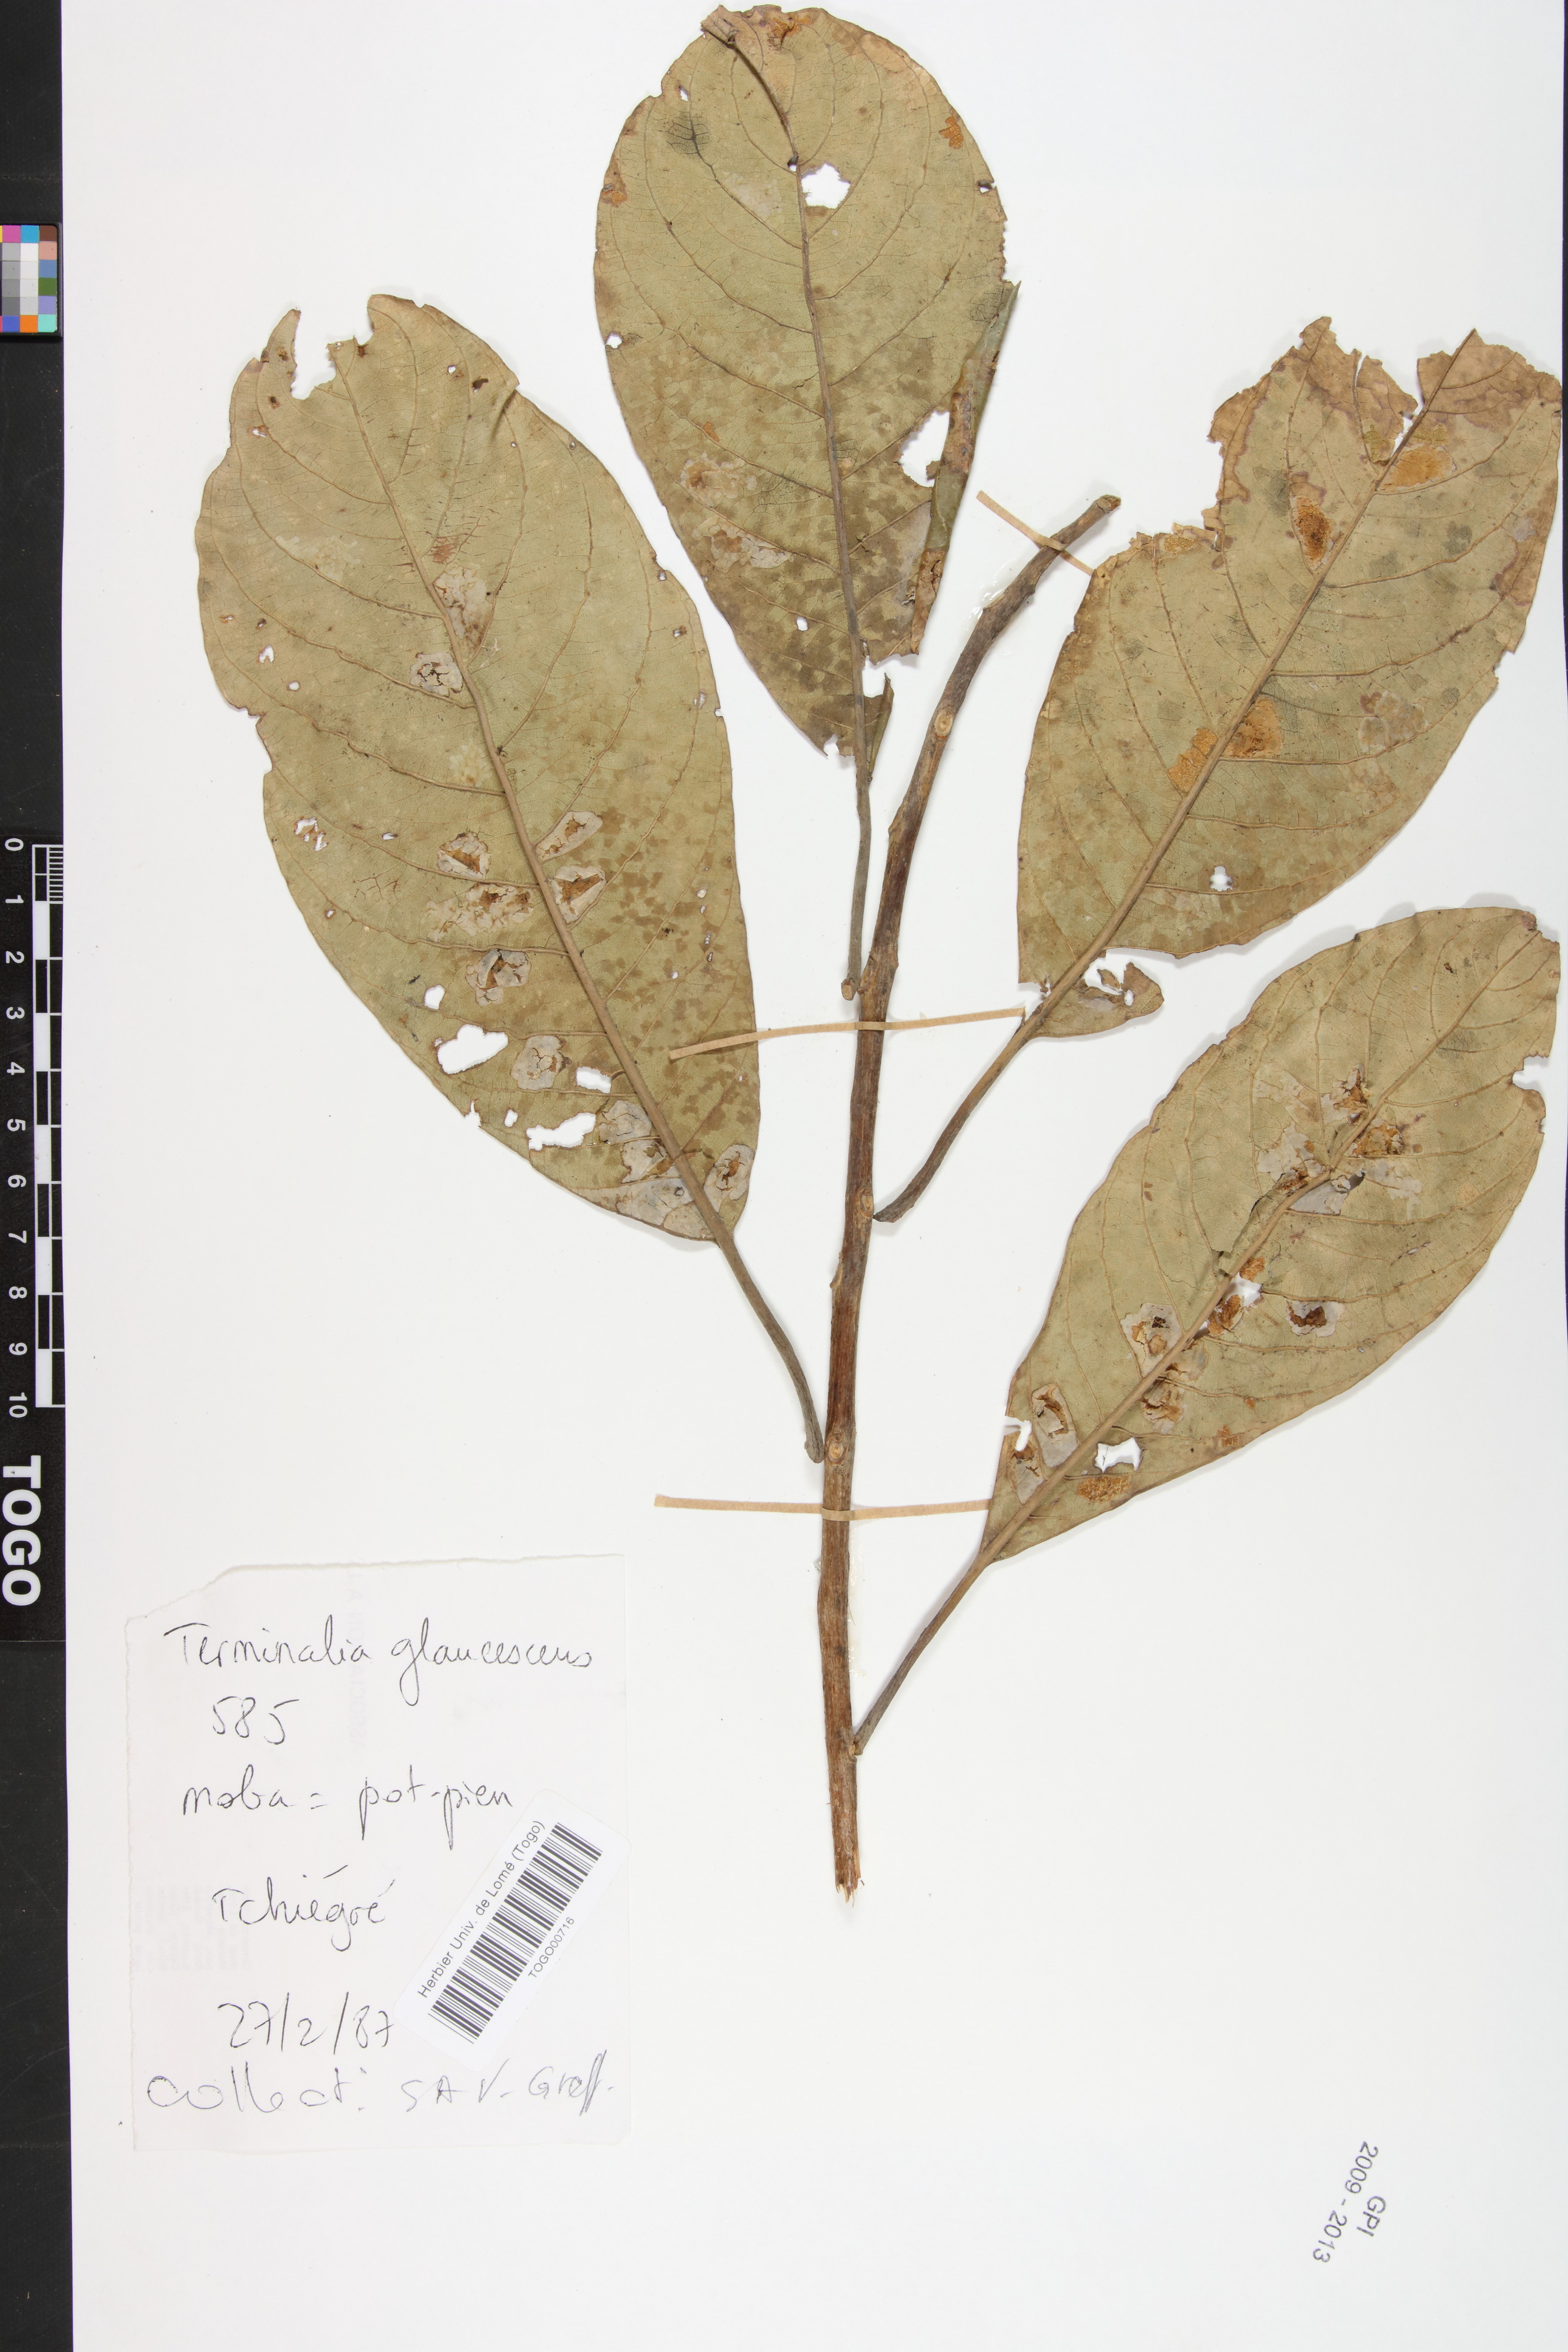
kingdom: Plantae
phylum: Tracheophyta
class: Magnoliopsida
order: Myrtales
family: Combretaceae
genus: Terminalia
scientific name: Terminalia schimperiana
